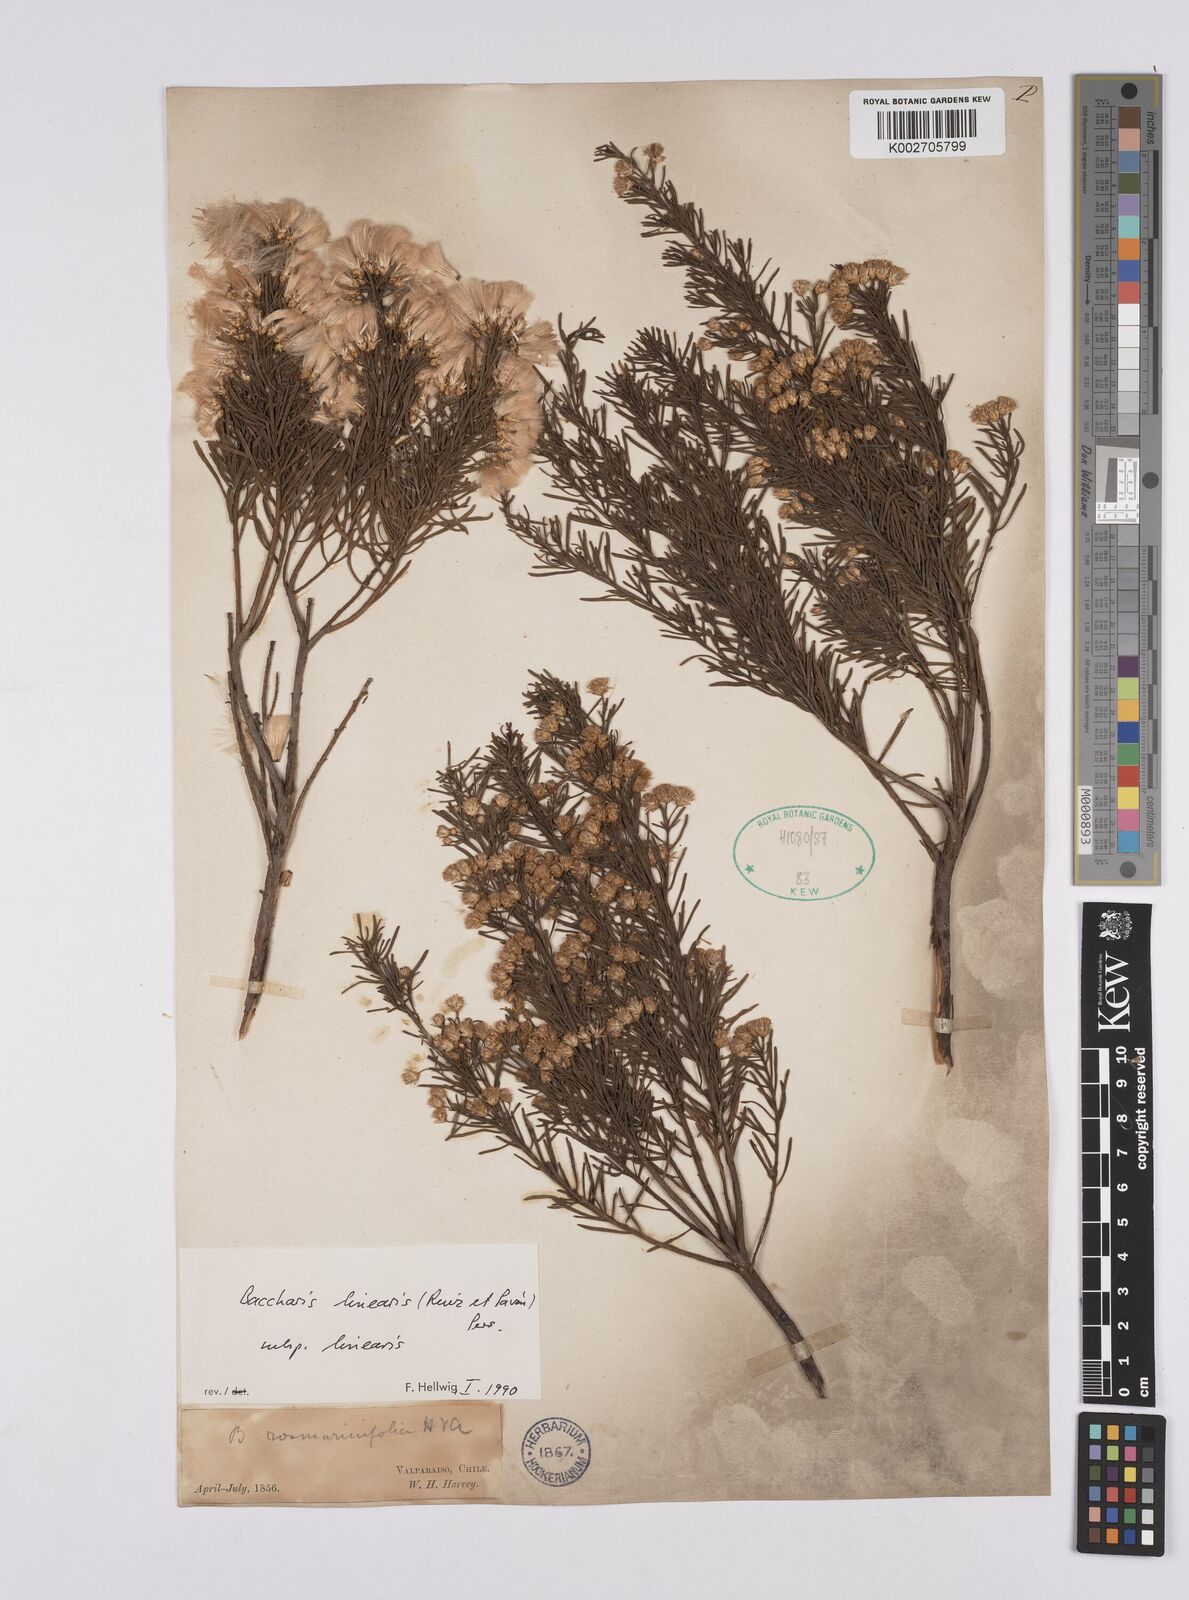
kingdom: Plantae
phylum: Tracheophyta
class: Magnoliopsida
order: Asterales
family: Asteraceae
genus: Baccharis
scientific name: Baccharis linearis
